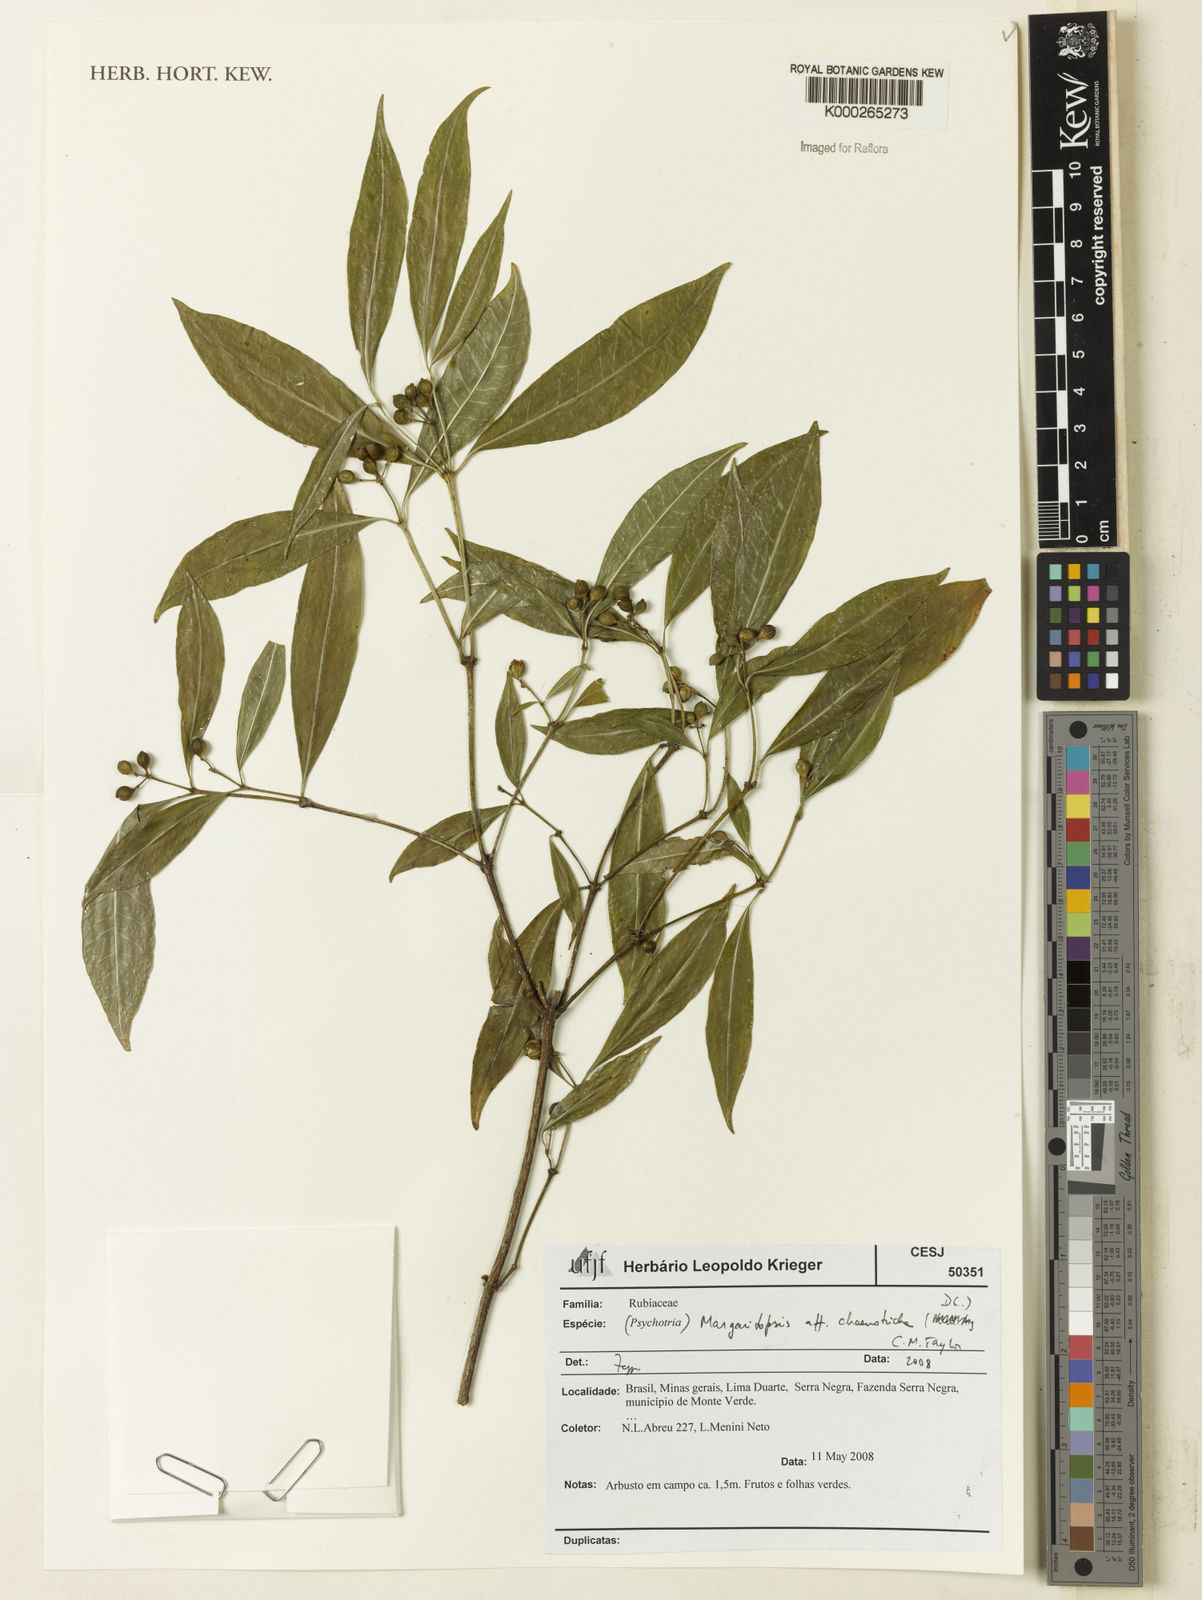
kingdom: Plantae
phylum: Tracheophyta
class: Magnoliopsida
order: Gentianales
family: Rubiaceae
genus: Eumachia
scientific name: Eumachia chaenotricha
